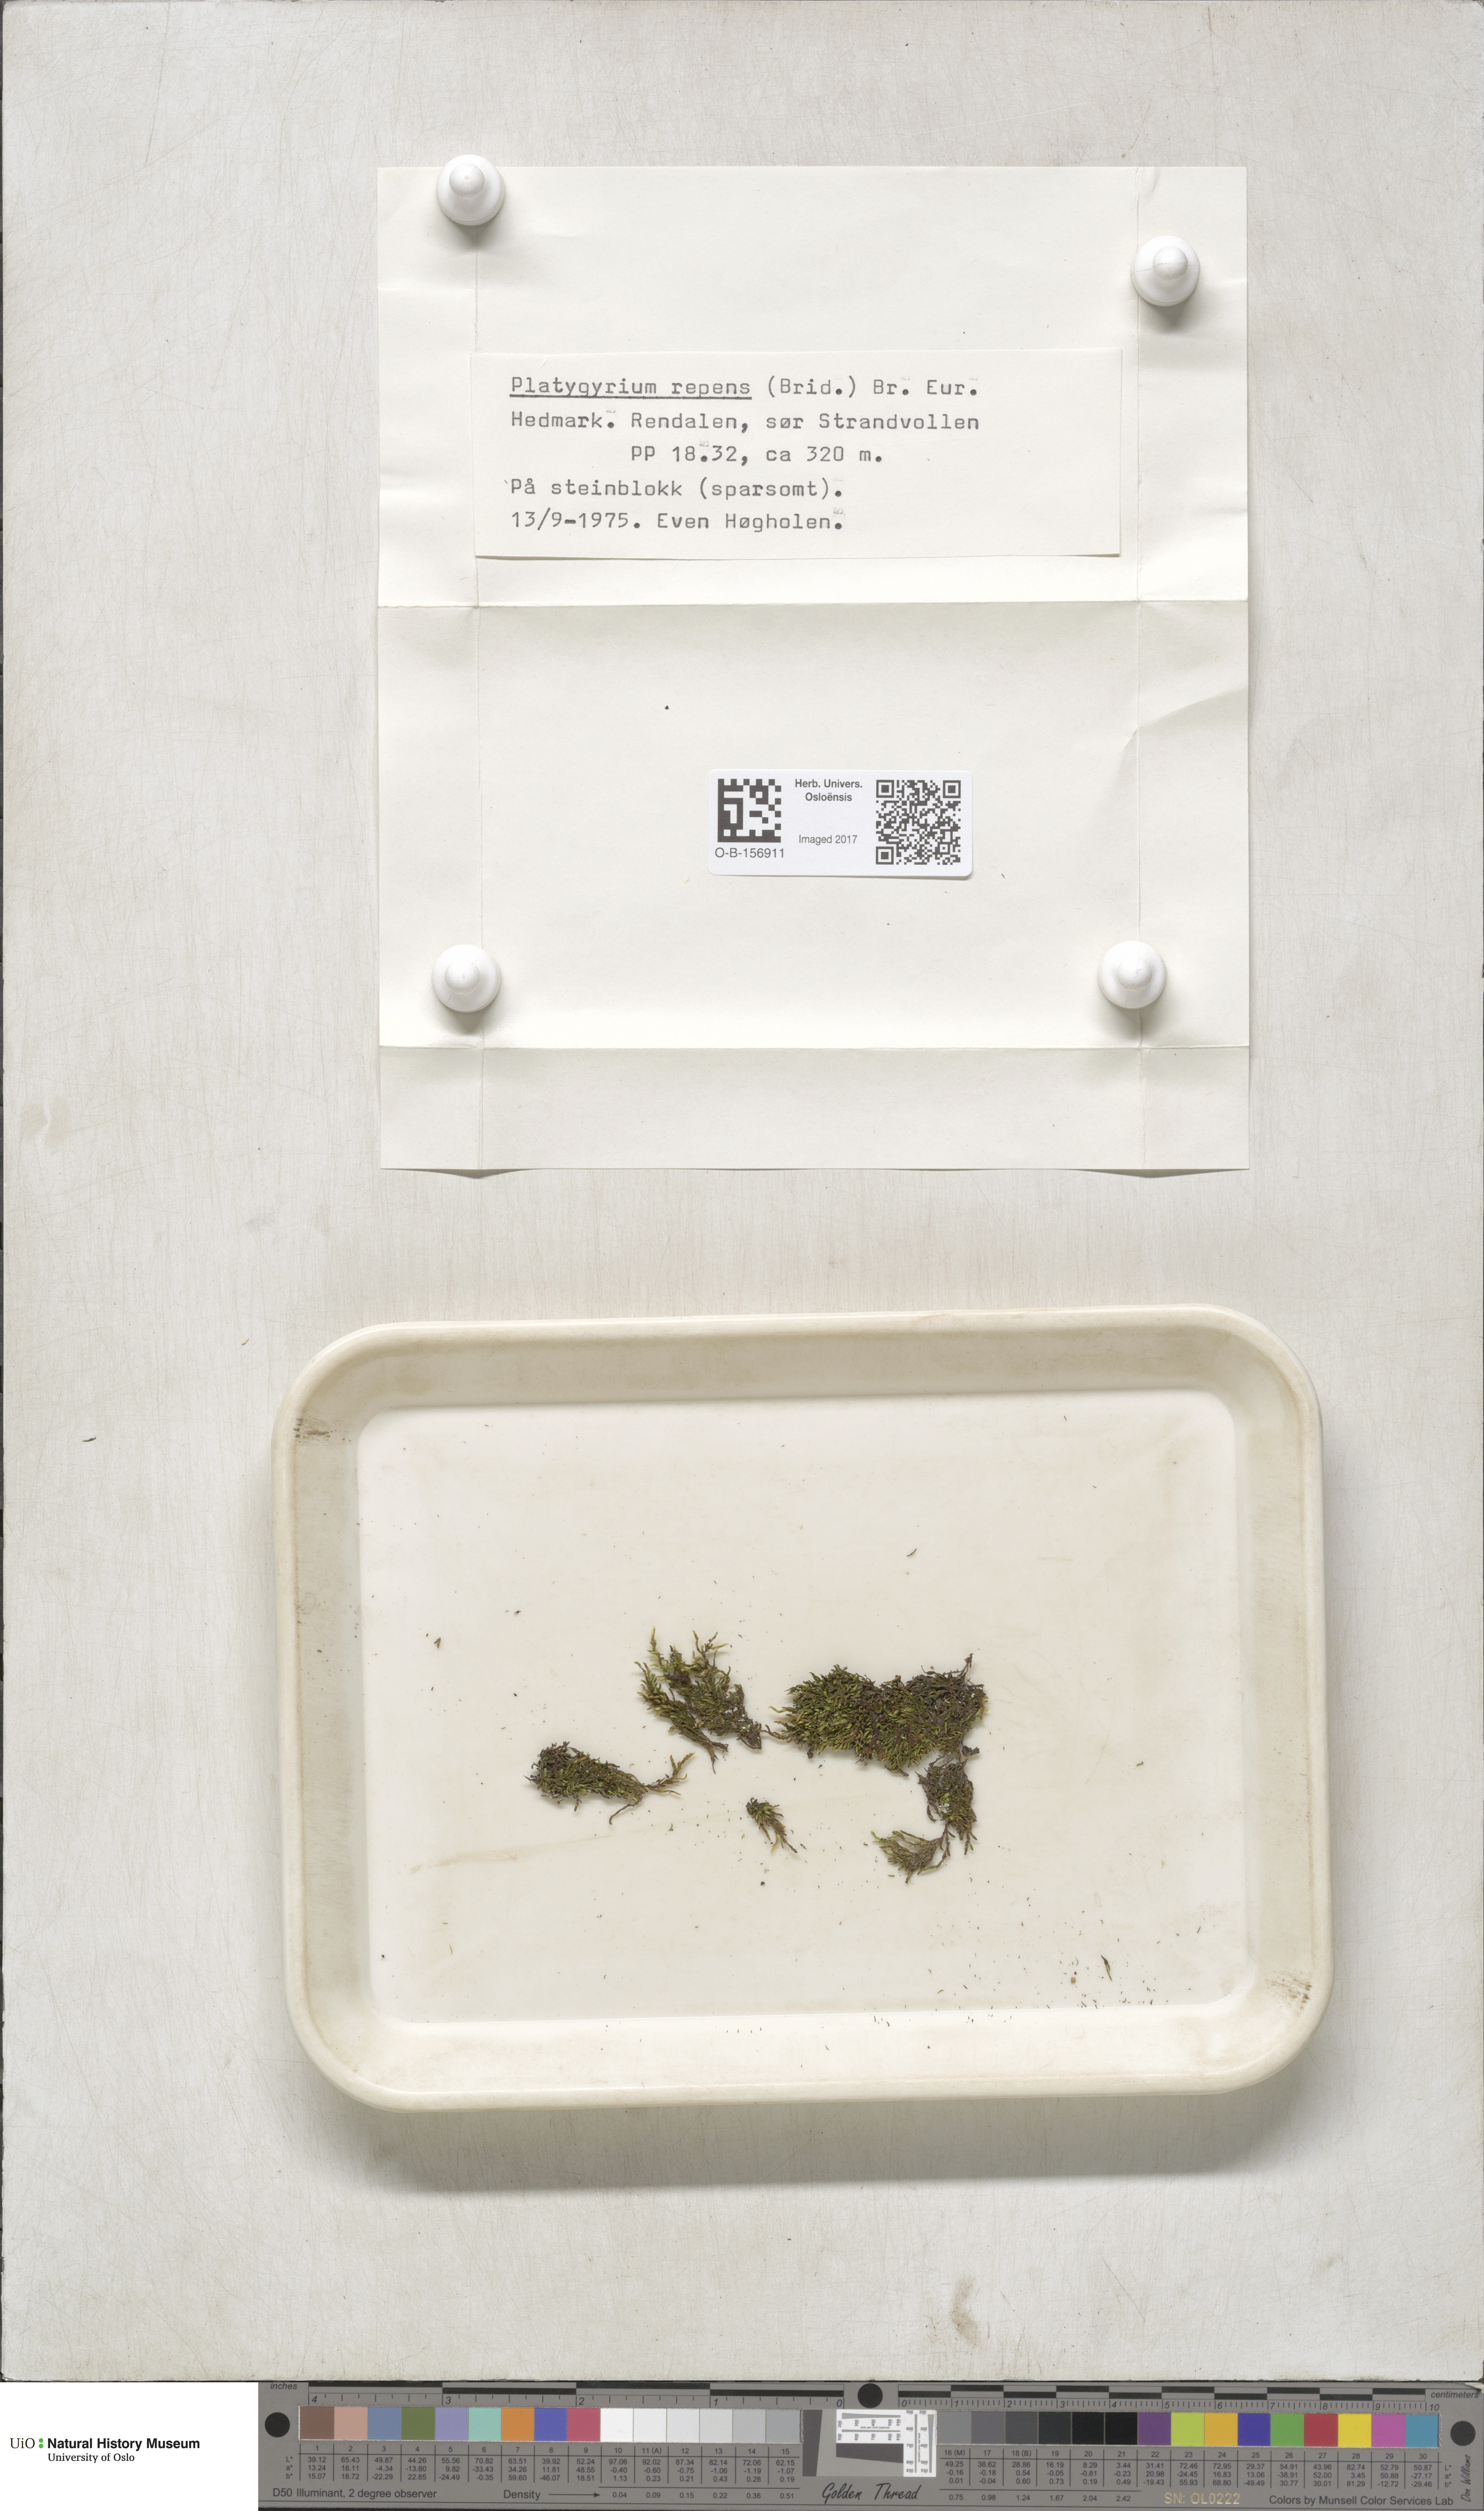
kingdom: Plantae
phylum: Bryophyta
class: Bryopsida
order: Hypnales
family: Pylaisiadelphaceae
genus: Platygyrium
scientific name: Platygyrium repens
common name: Flat-brocade moss
